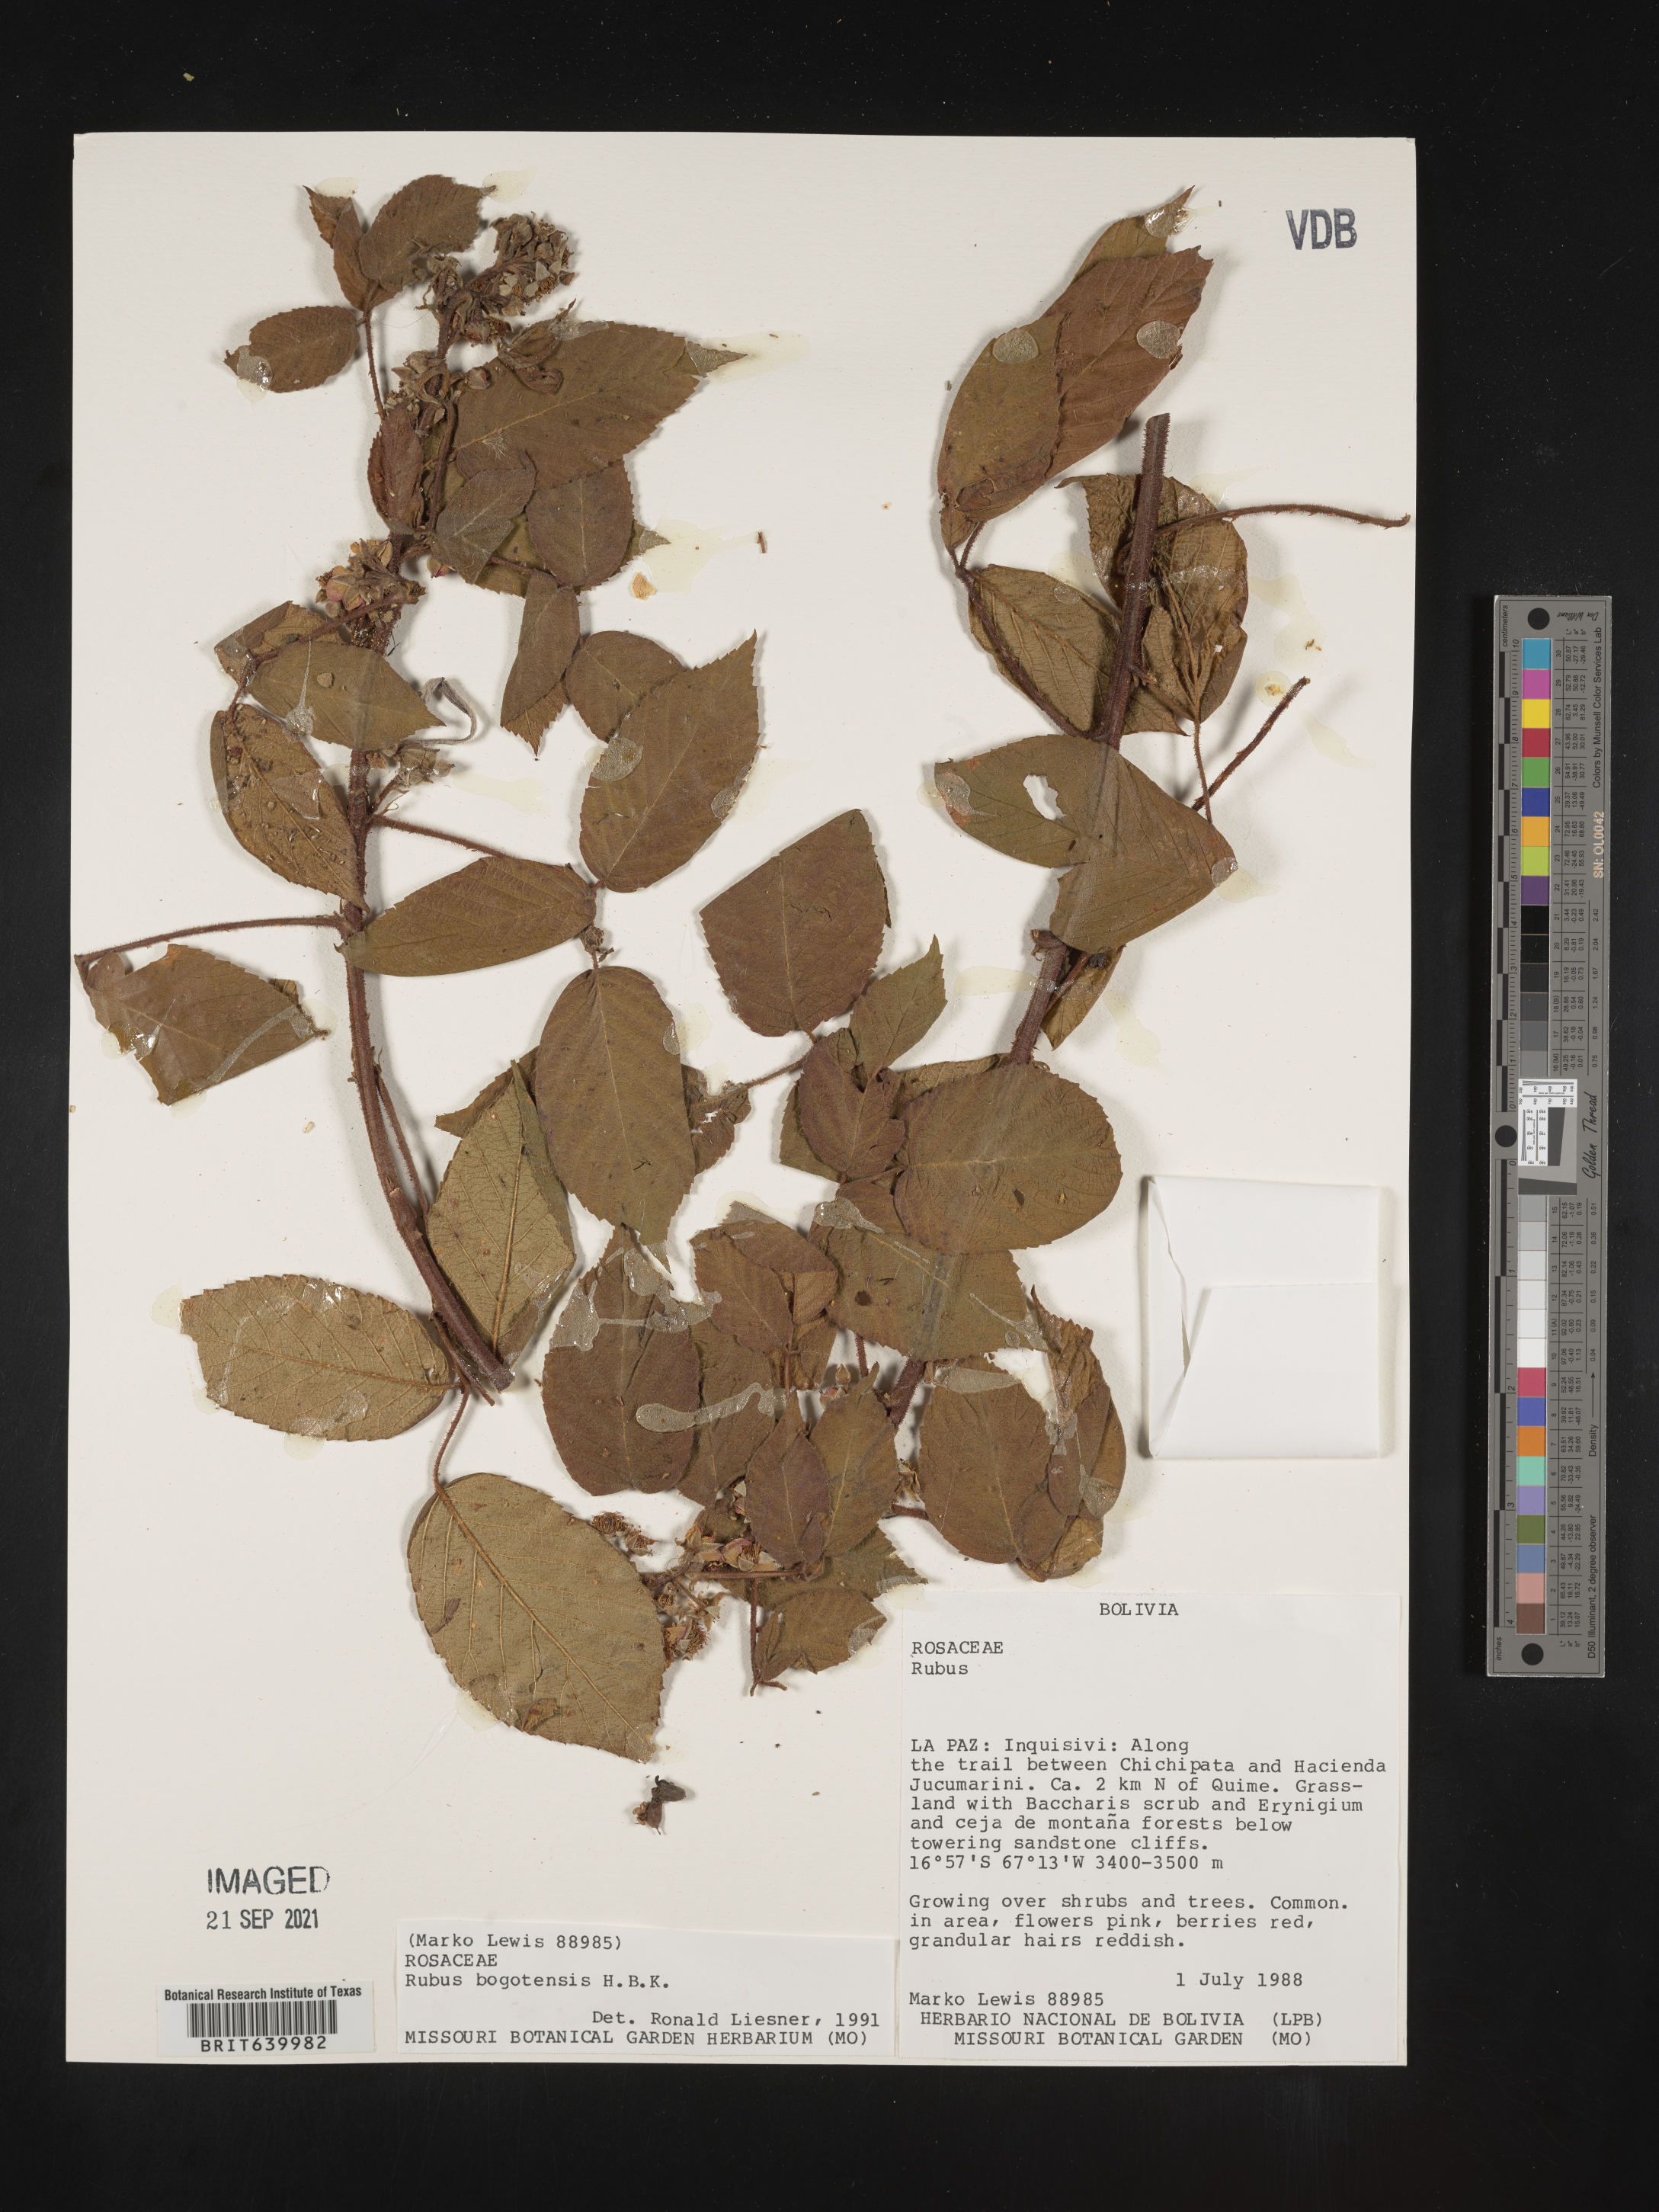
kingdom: Plantae
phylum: Tracheophyta
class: Magnoliopsida
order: Rosales
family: Rosaceae
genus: Rubus
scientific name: Rubus
